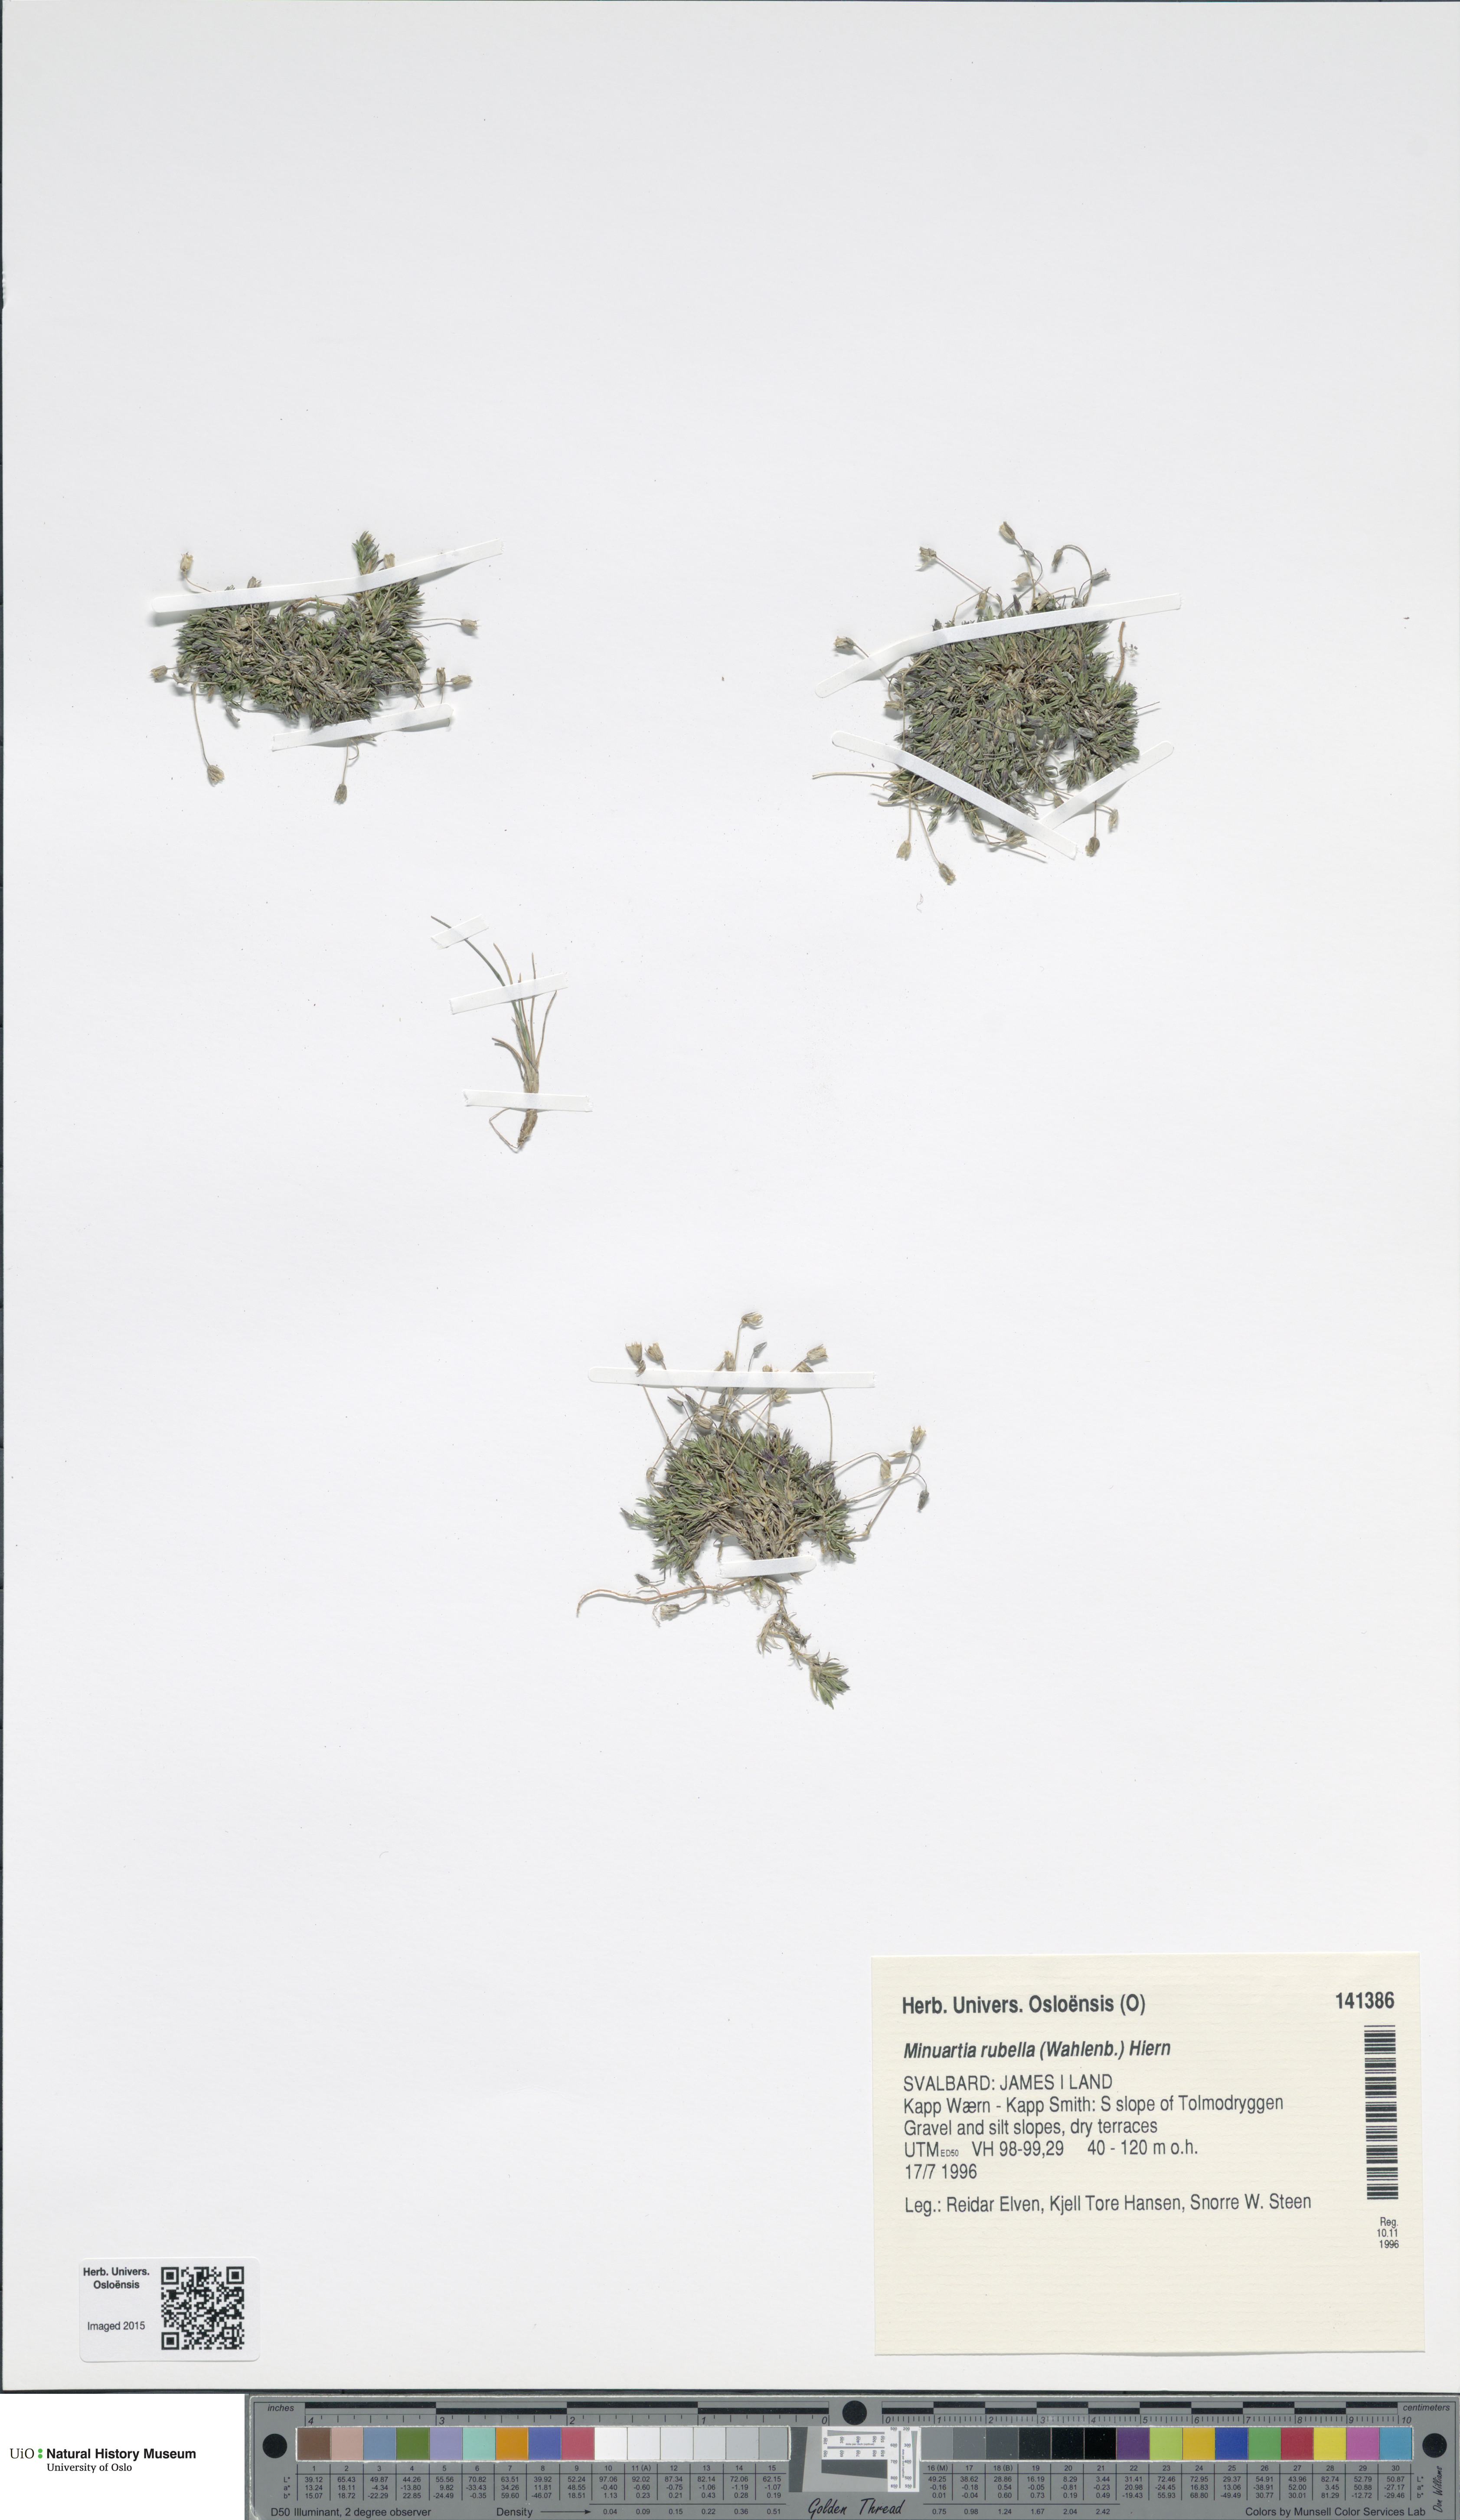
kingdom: Plantae
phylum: Tracheophyta
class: Magnoliopsida
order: Caryophyllales
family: Caryophyllaceae
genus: Sabulina
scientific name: Sabulina rubella
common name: Beautiful sandwort
